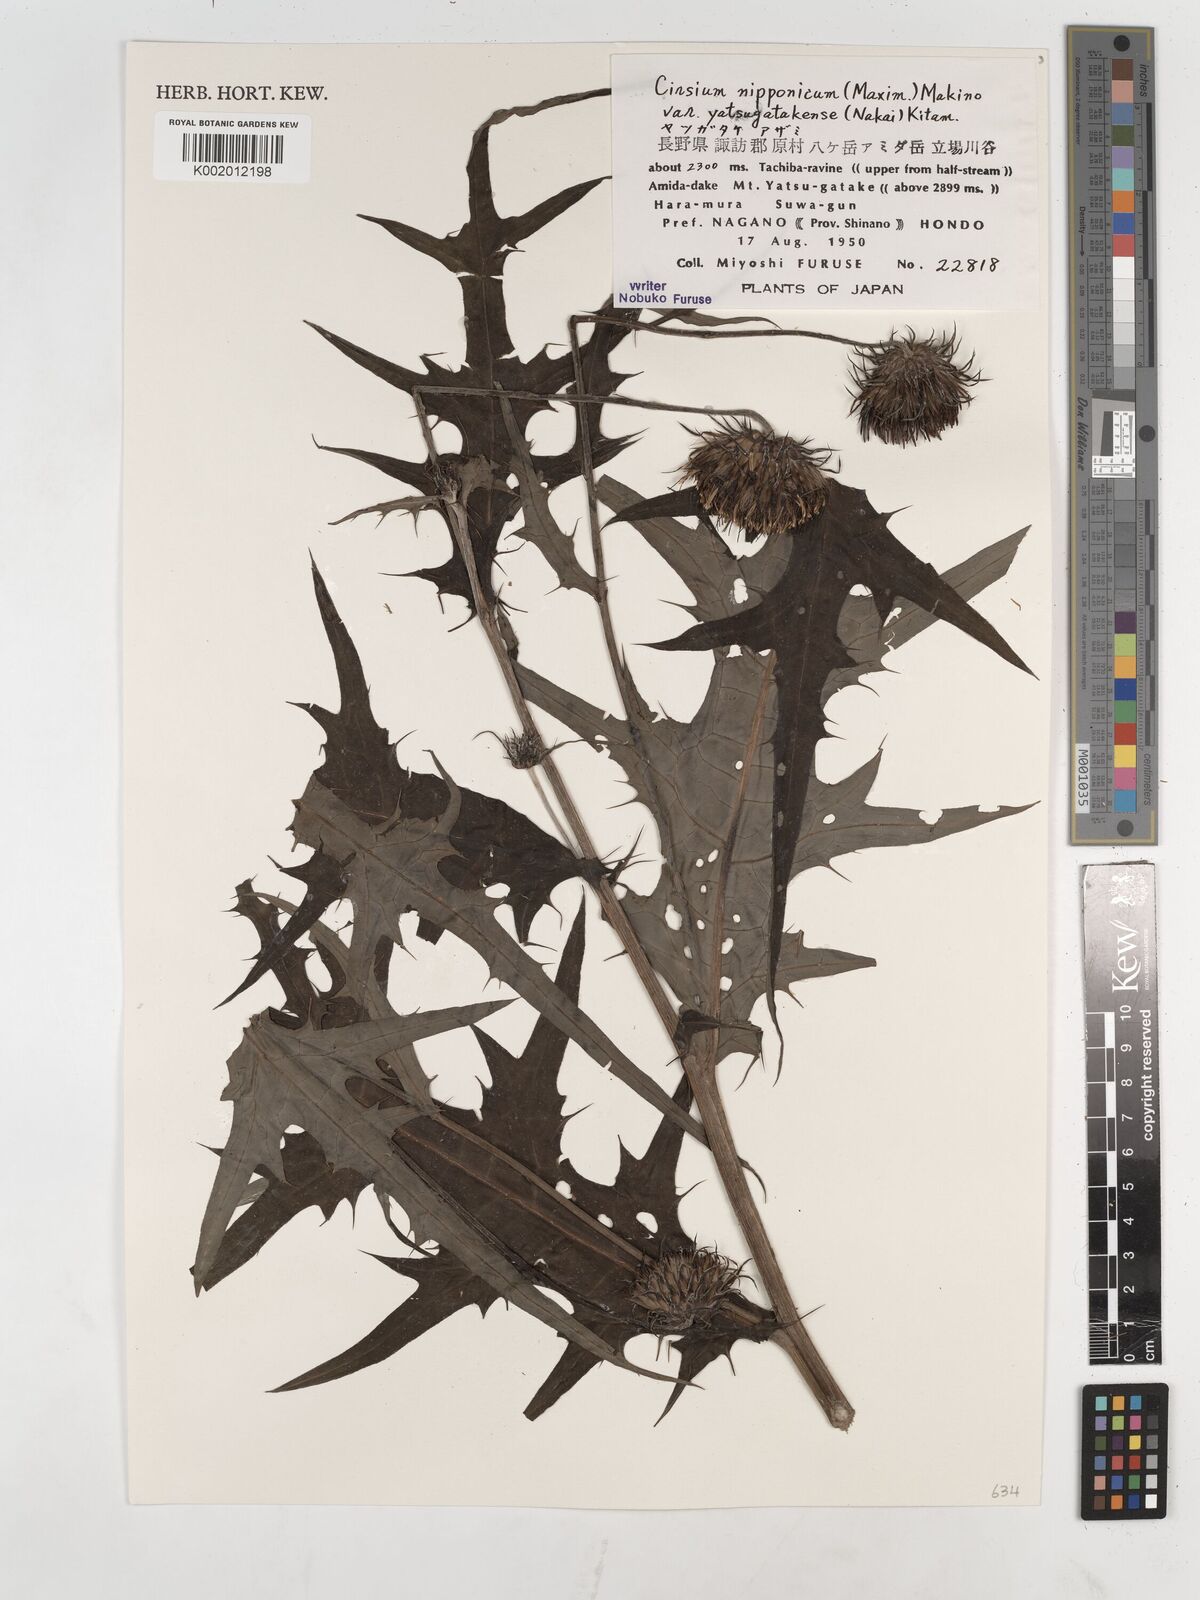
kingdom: Plantae
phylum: Tracheophyta
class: Magnoliopsida
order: Asterales
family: Asteraceae
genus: Cirsium
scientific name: Cirsium nipponicum
